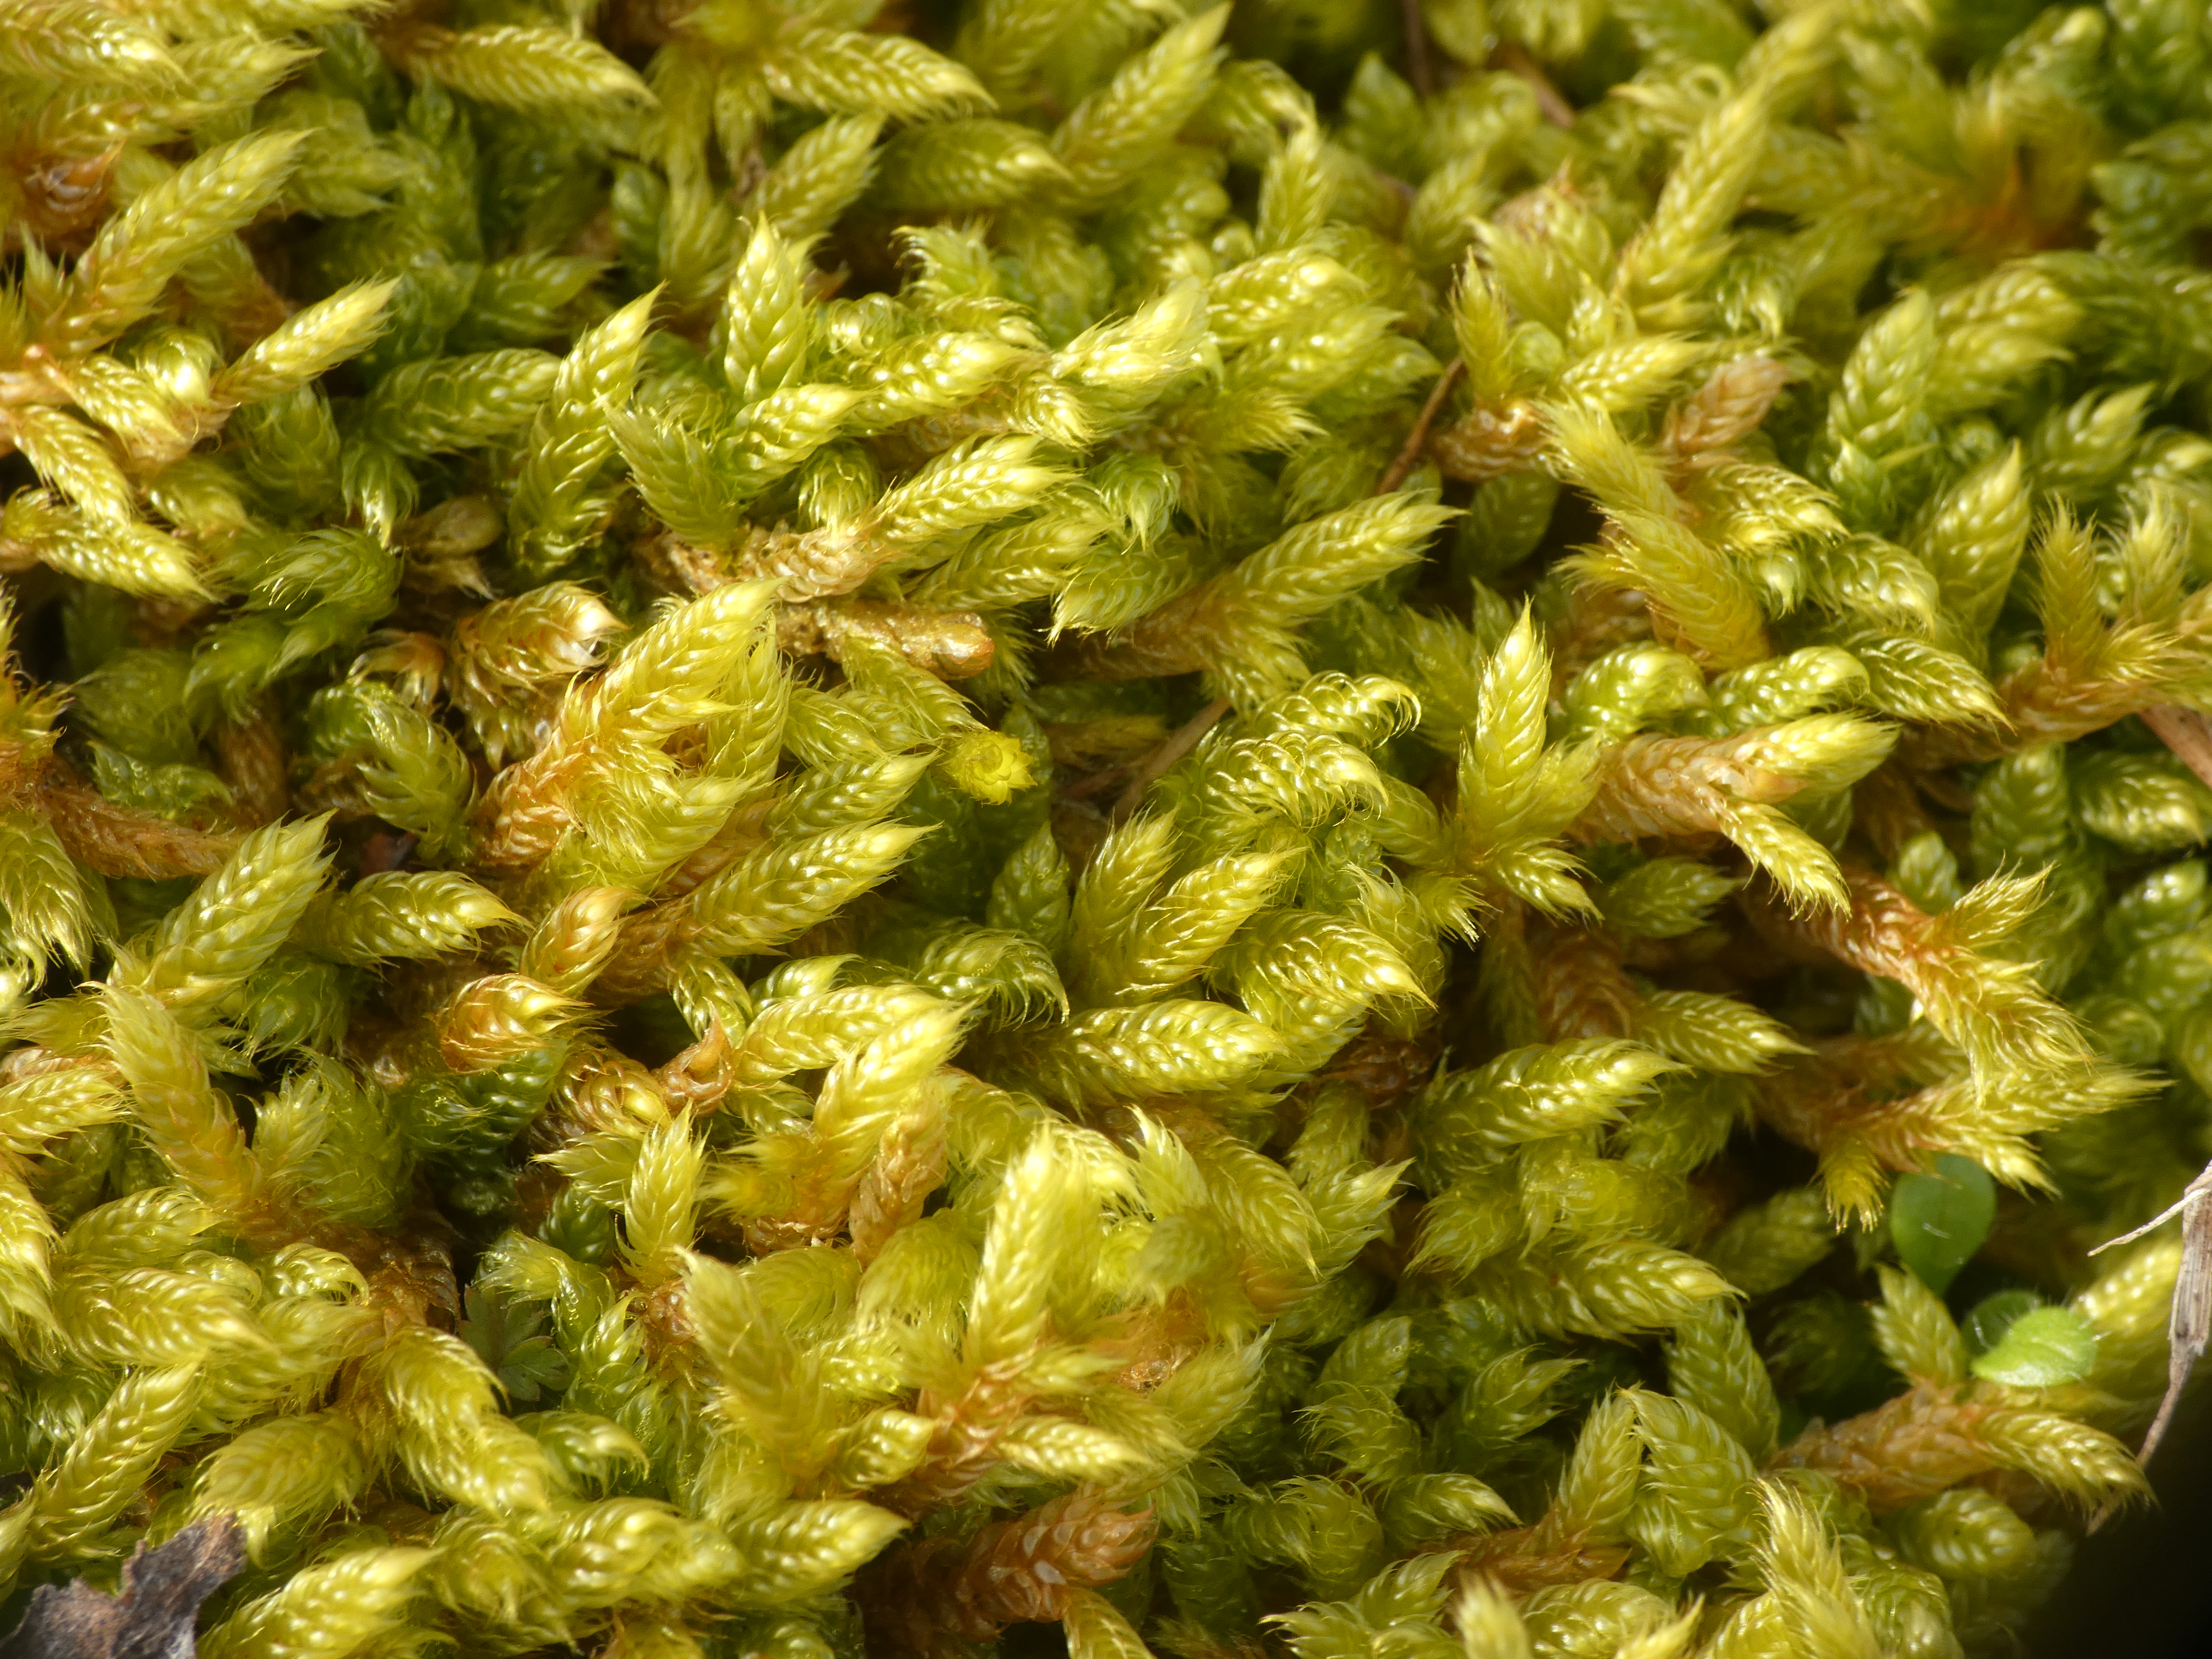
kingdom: Plantae
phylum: Bryophyta
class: Bryopsida
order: Hypnales
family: Hypnaceae
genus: Hypnum
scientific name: Hypnum cupressiforme
